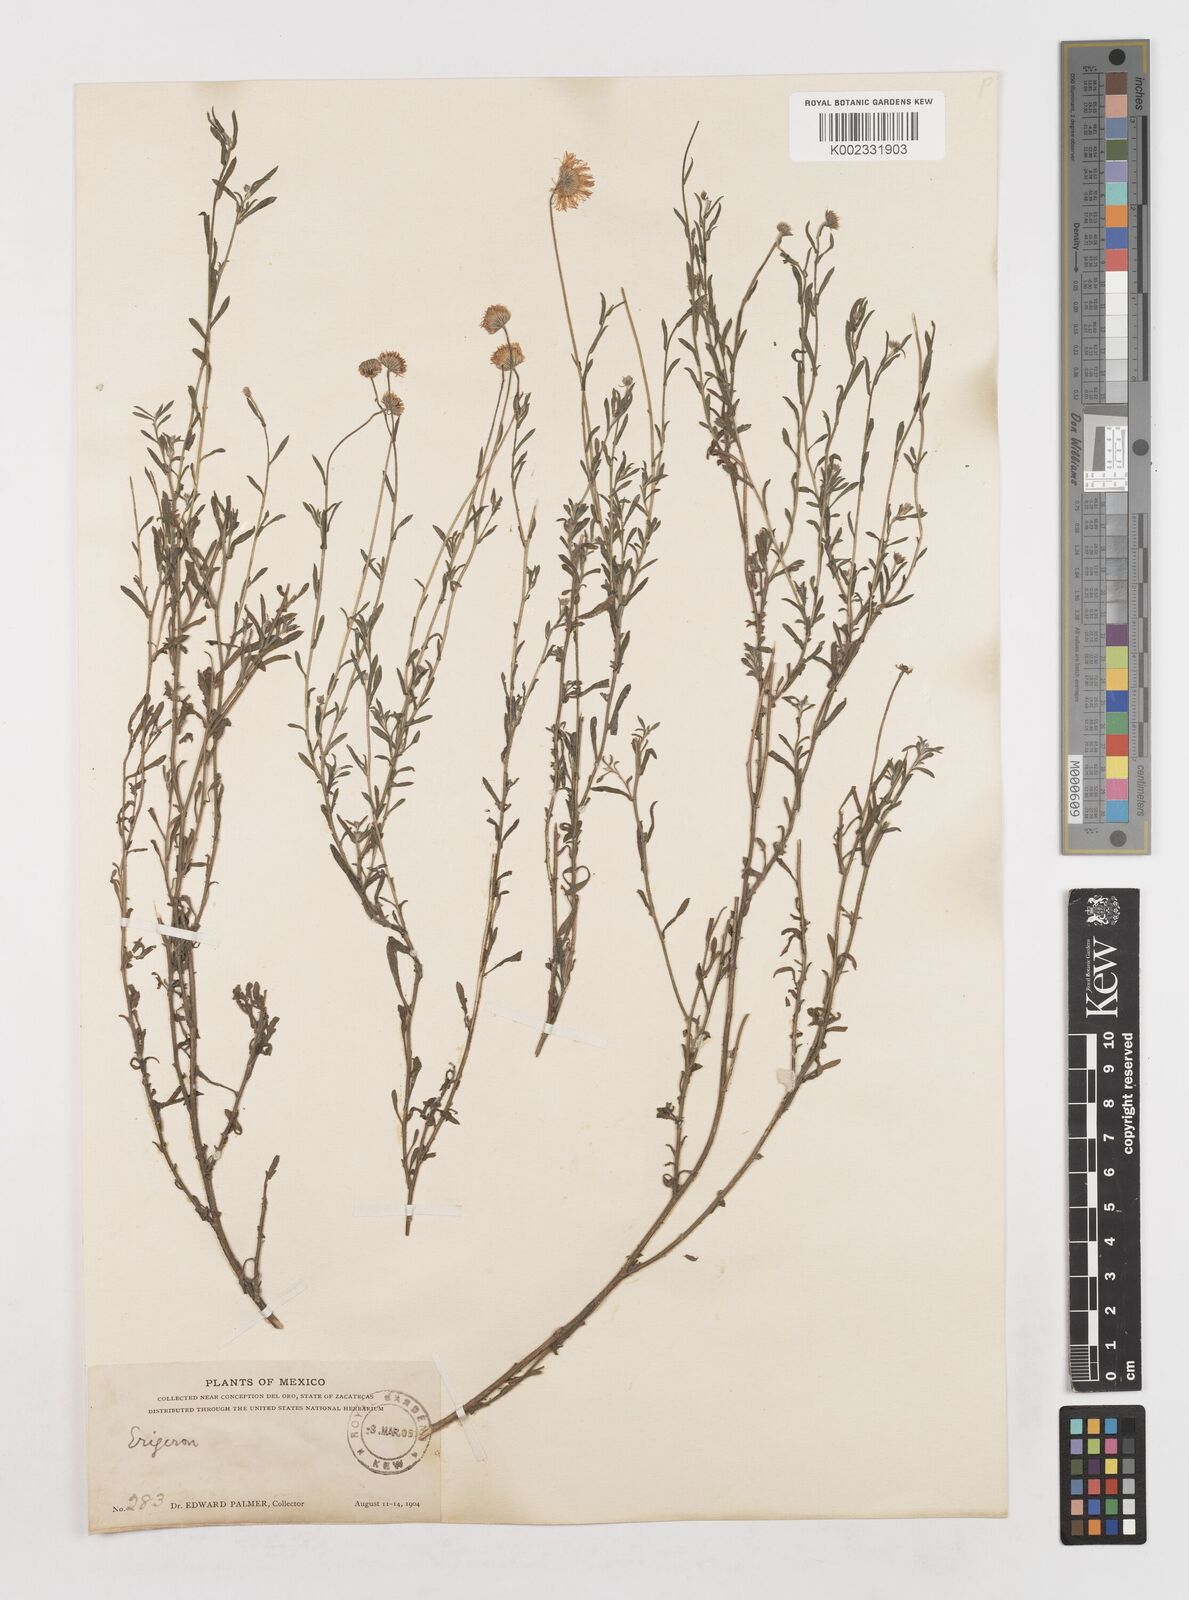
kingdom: Plantae
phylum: Tracheophyta
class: Magnoliopsida
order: Asterales
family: Asteraceae
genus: Erigeron
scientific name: Erigeron
